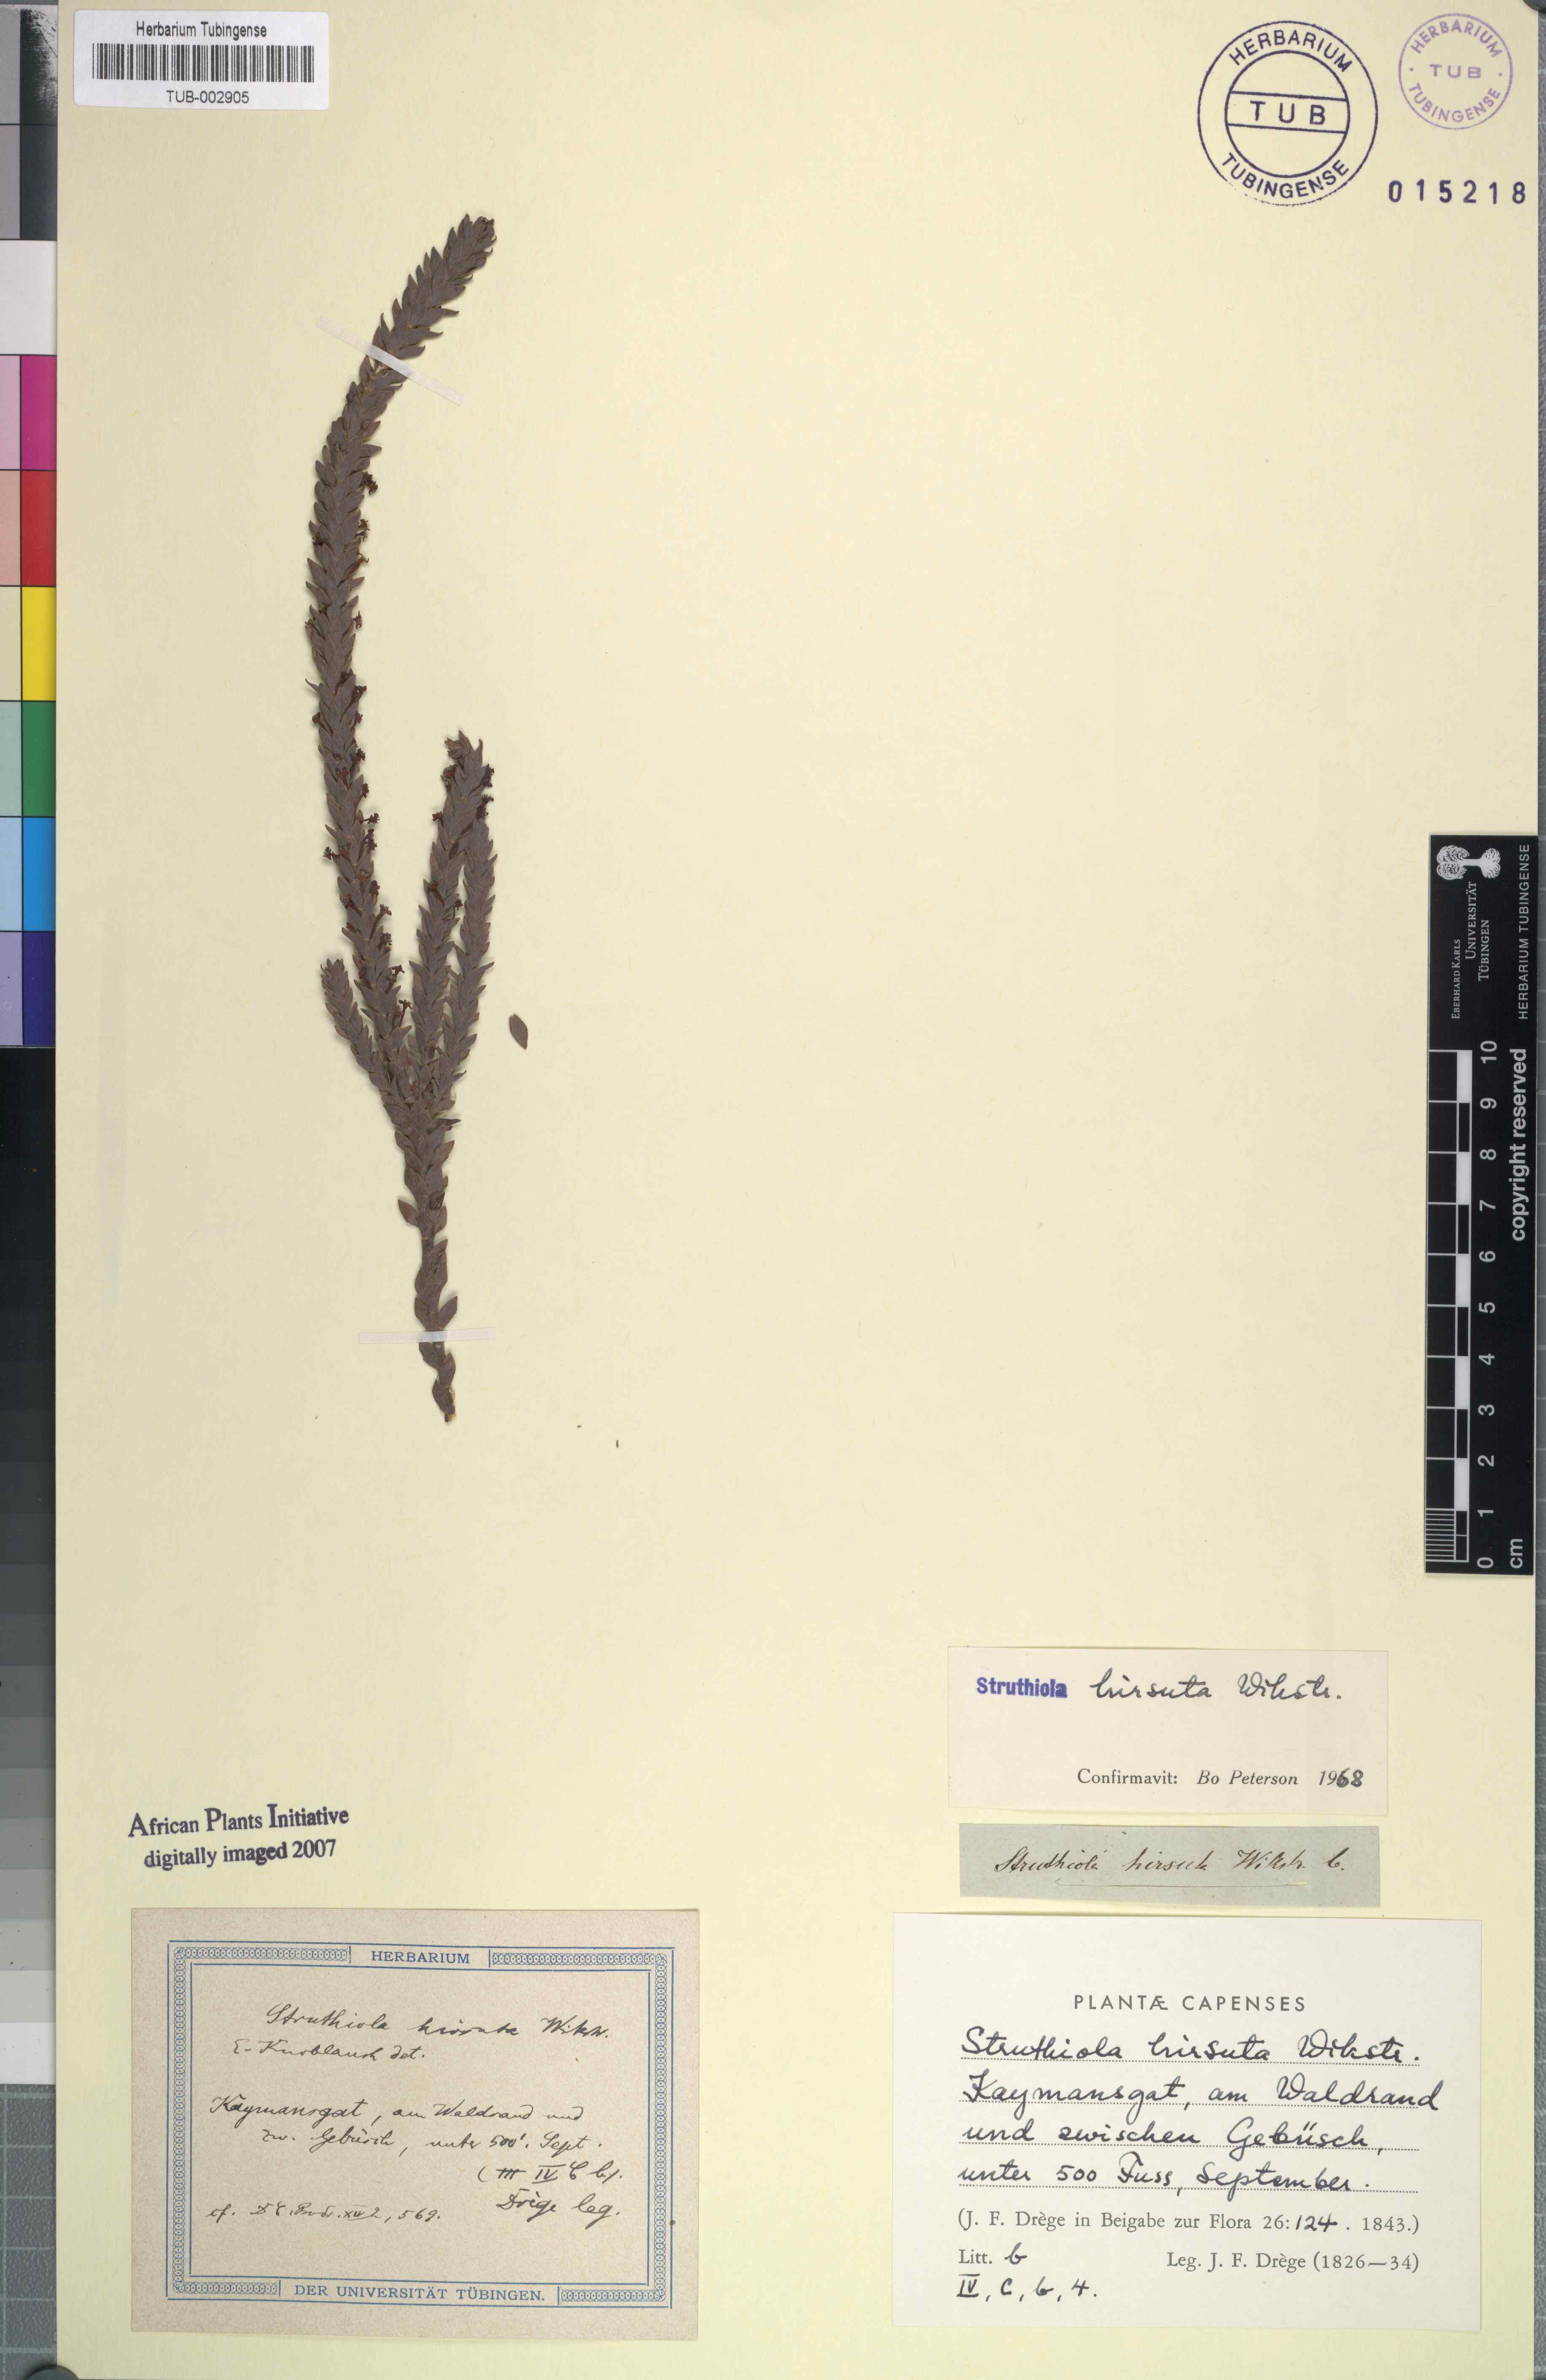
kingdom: Plantae
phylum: Tracheophyta
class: Magnoliopsida
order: Malvales
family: Thymelaeaceae
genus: Struthiola
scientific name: Struthiola hirsuta
